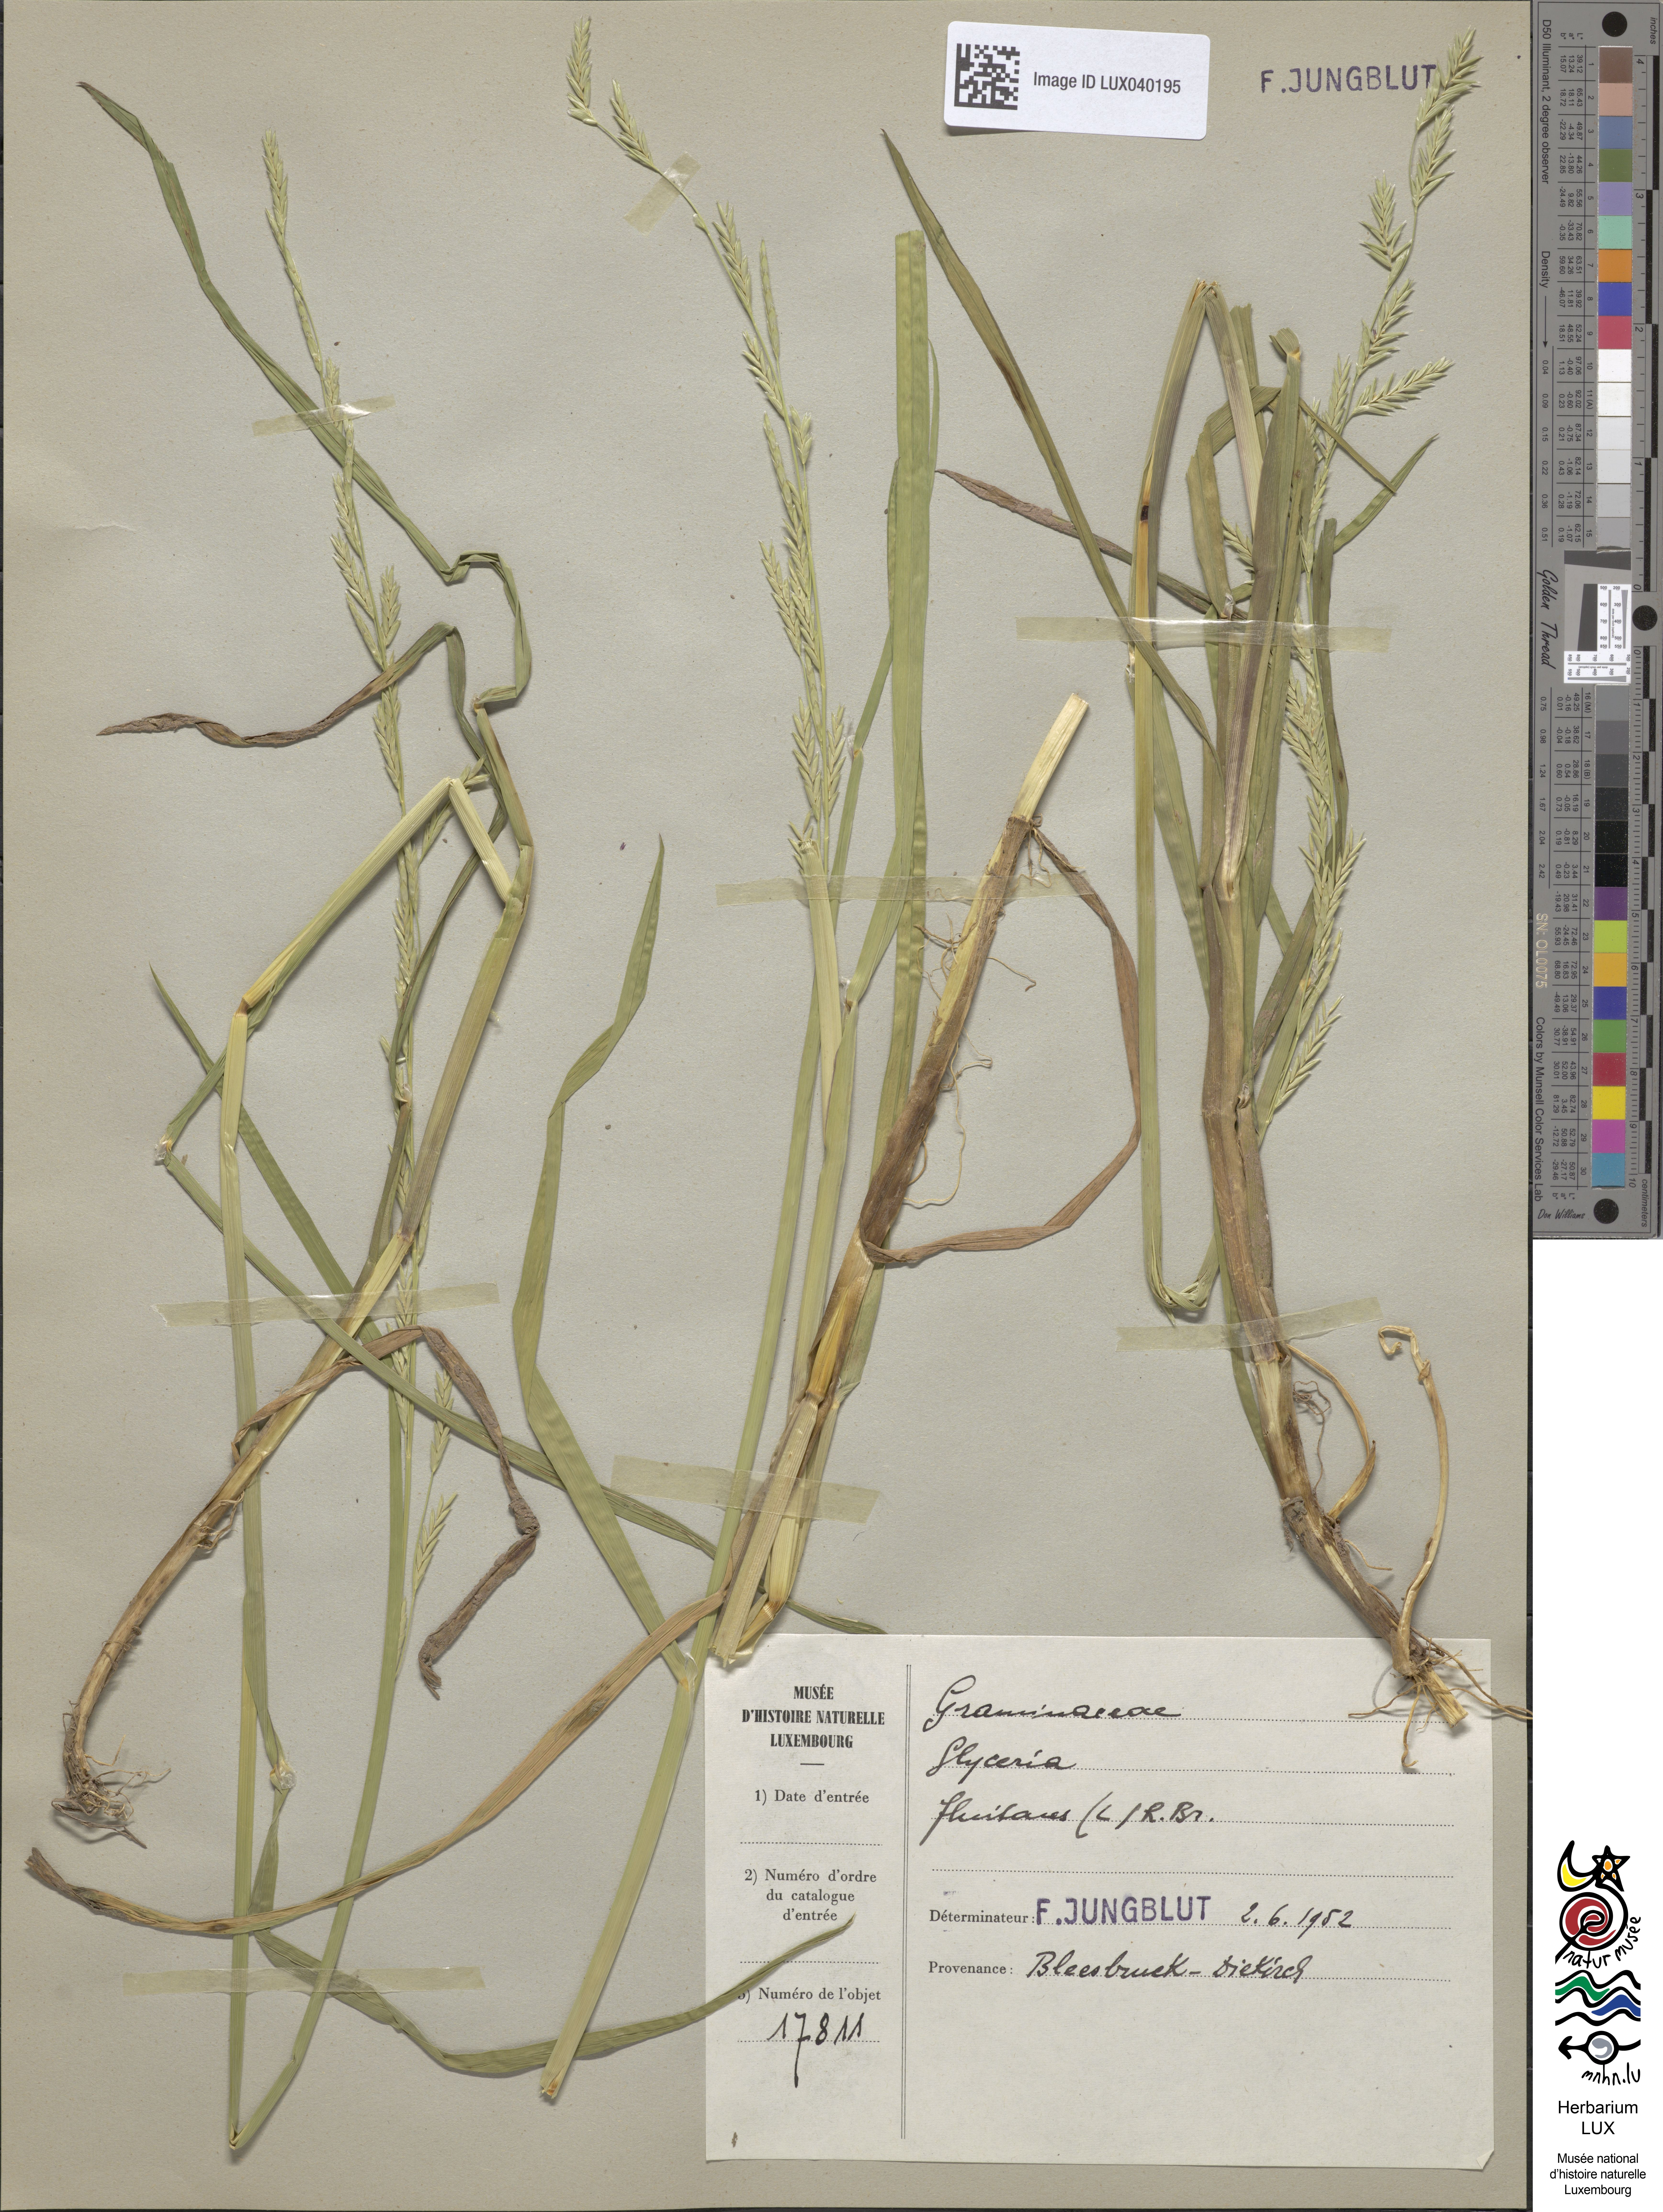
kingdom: Plantae
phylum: Tracheophyta
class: Liliopsida
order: Poales
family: Poaceae
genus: Glyceria
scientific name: Glyceria fluitans
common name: Floating sweet-grass
